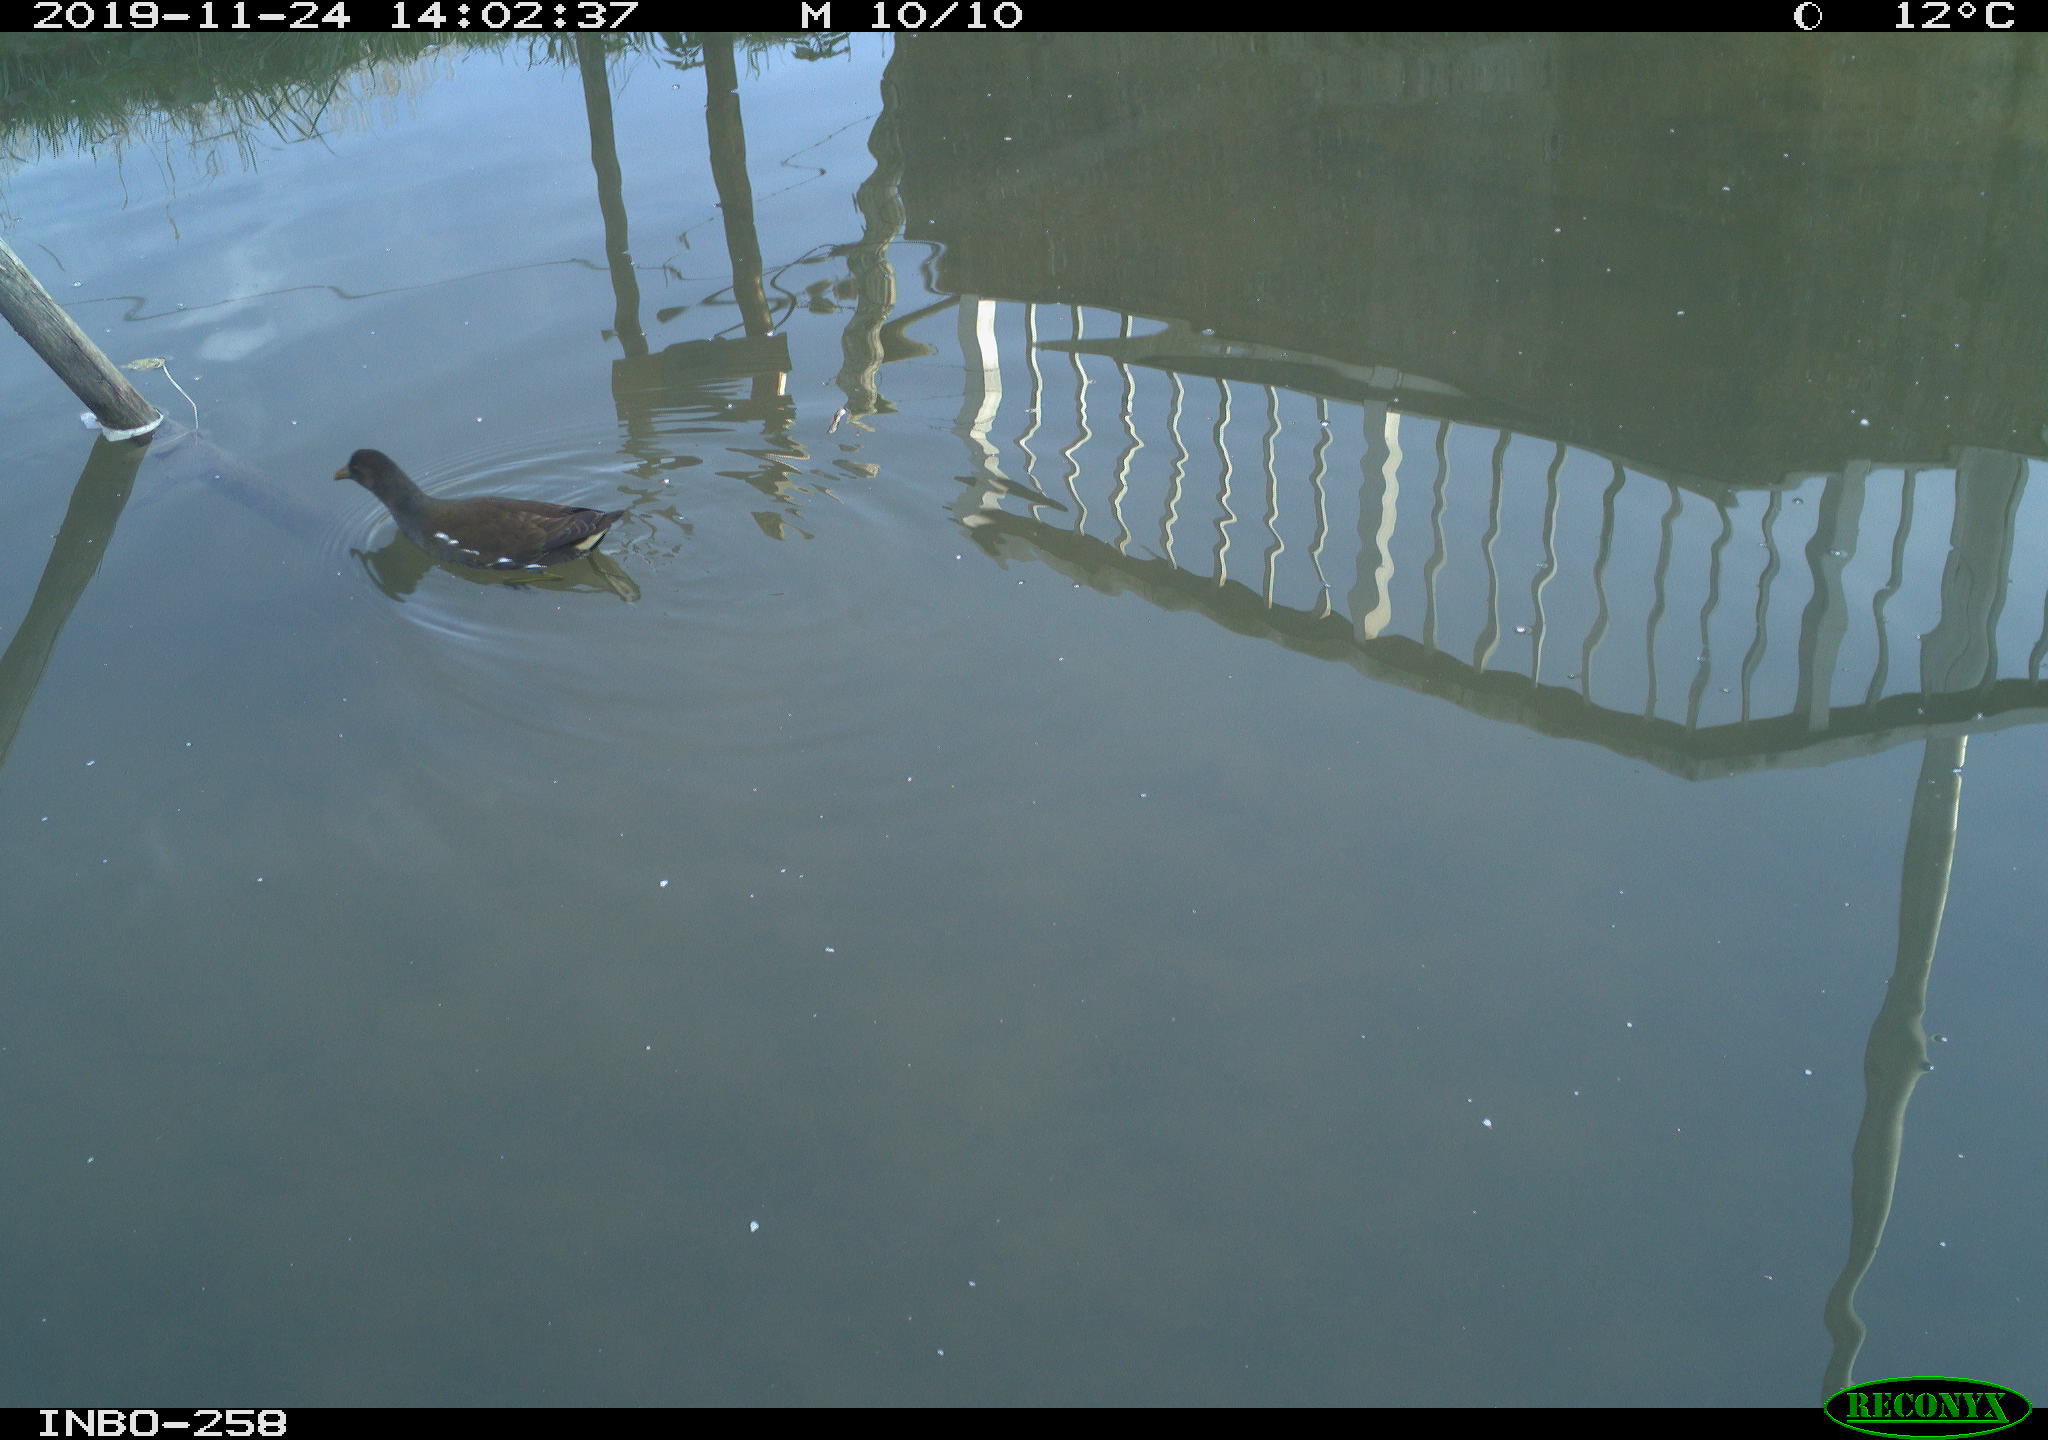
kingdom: Animalia
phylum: Chordata
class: Aves
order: Gruiformes
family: Rallidae
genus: Gallinula
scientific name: Gallinula chloropus
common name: Common moorhen
